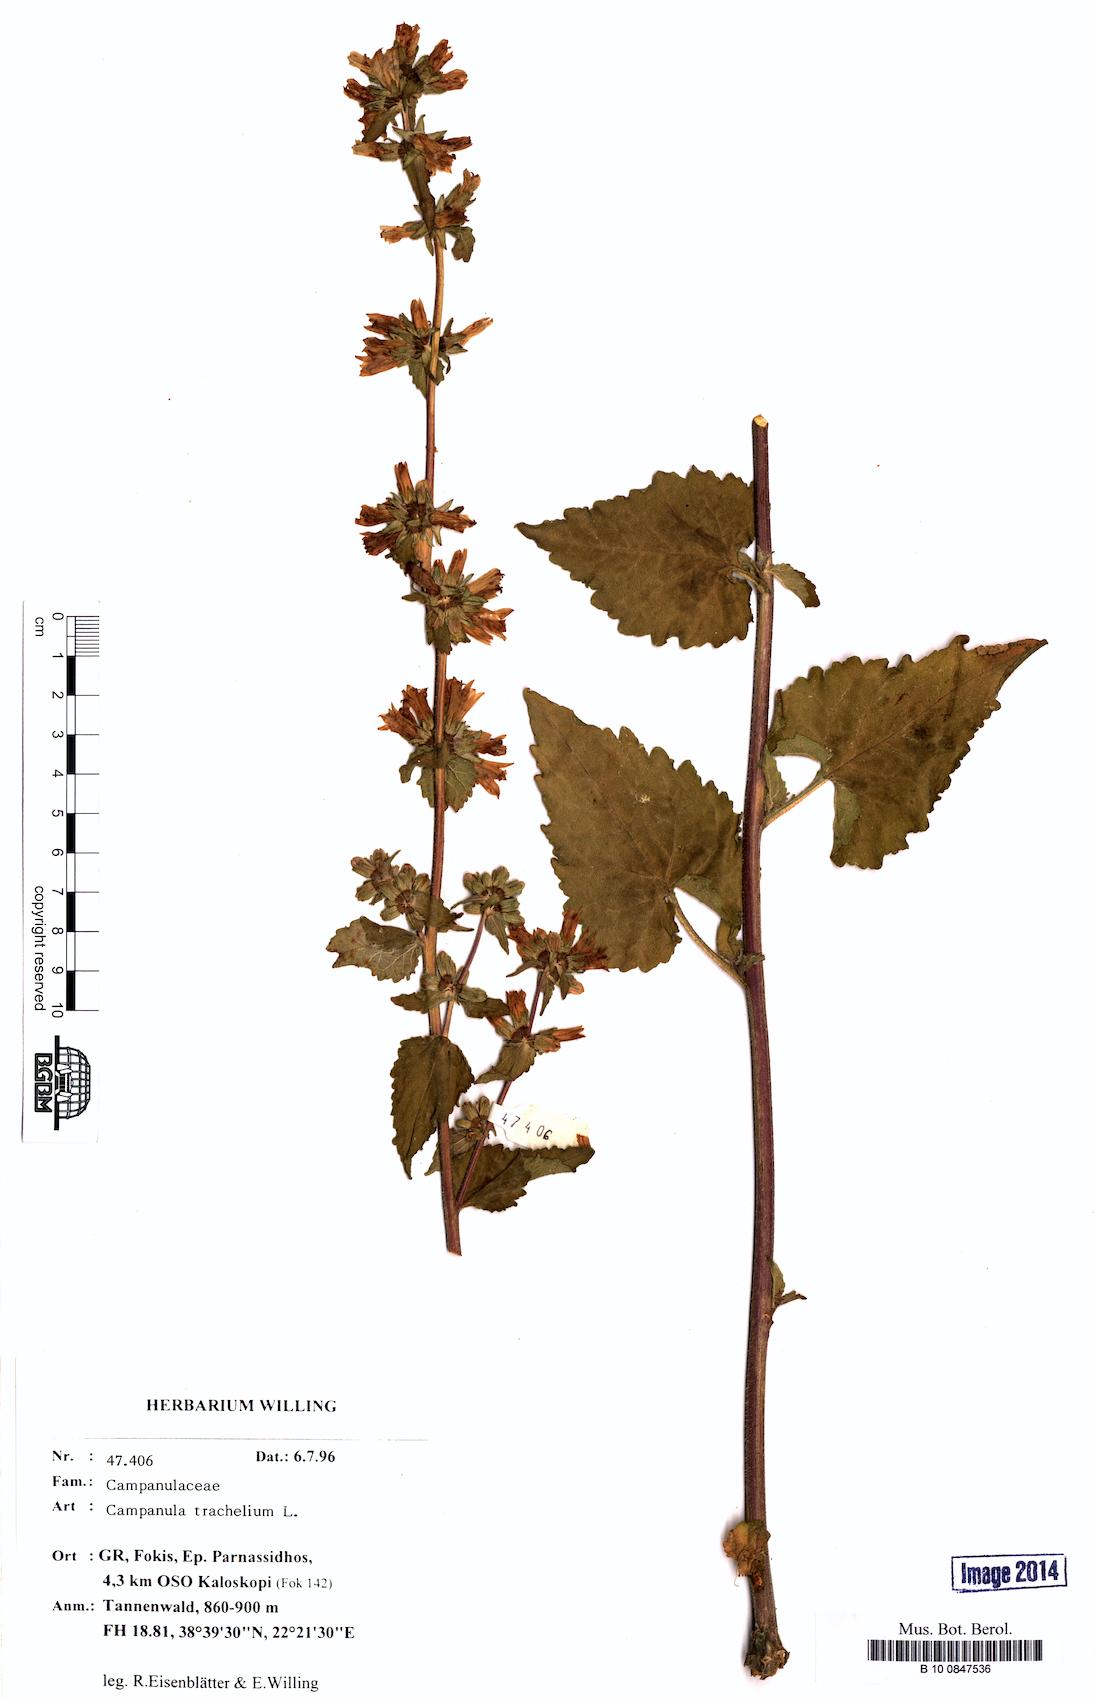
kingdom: Plantae
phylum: Tracheophyta
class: Magnoliopsida
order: Asterales
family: Campanulaceae
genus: Campanula
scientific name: Campanula trachelium
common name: Nettle-leaved bellflower
